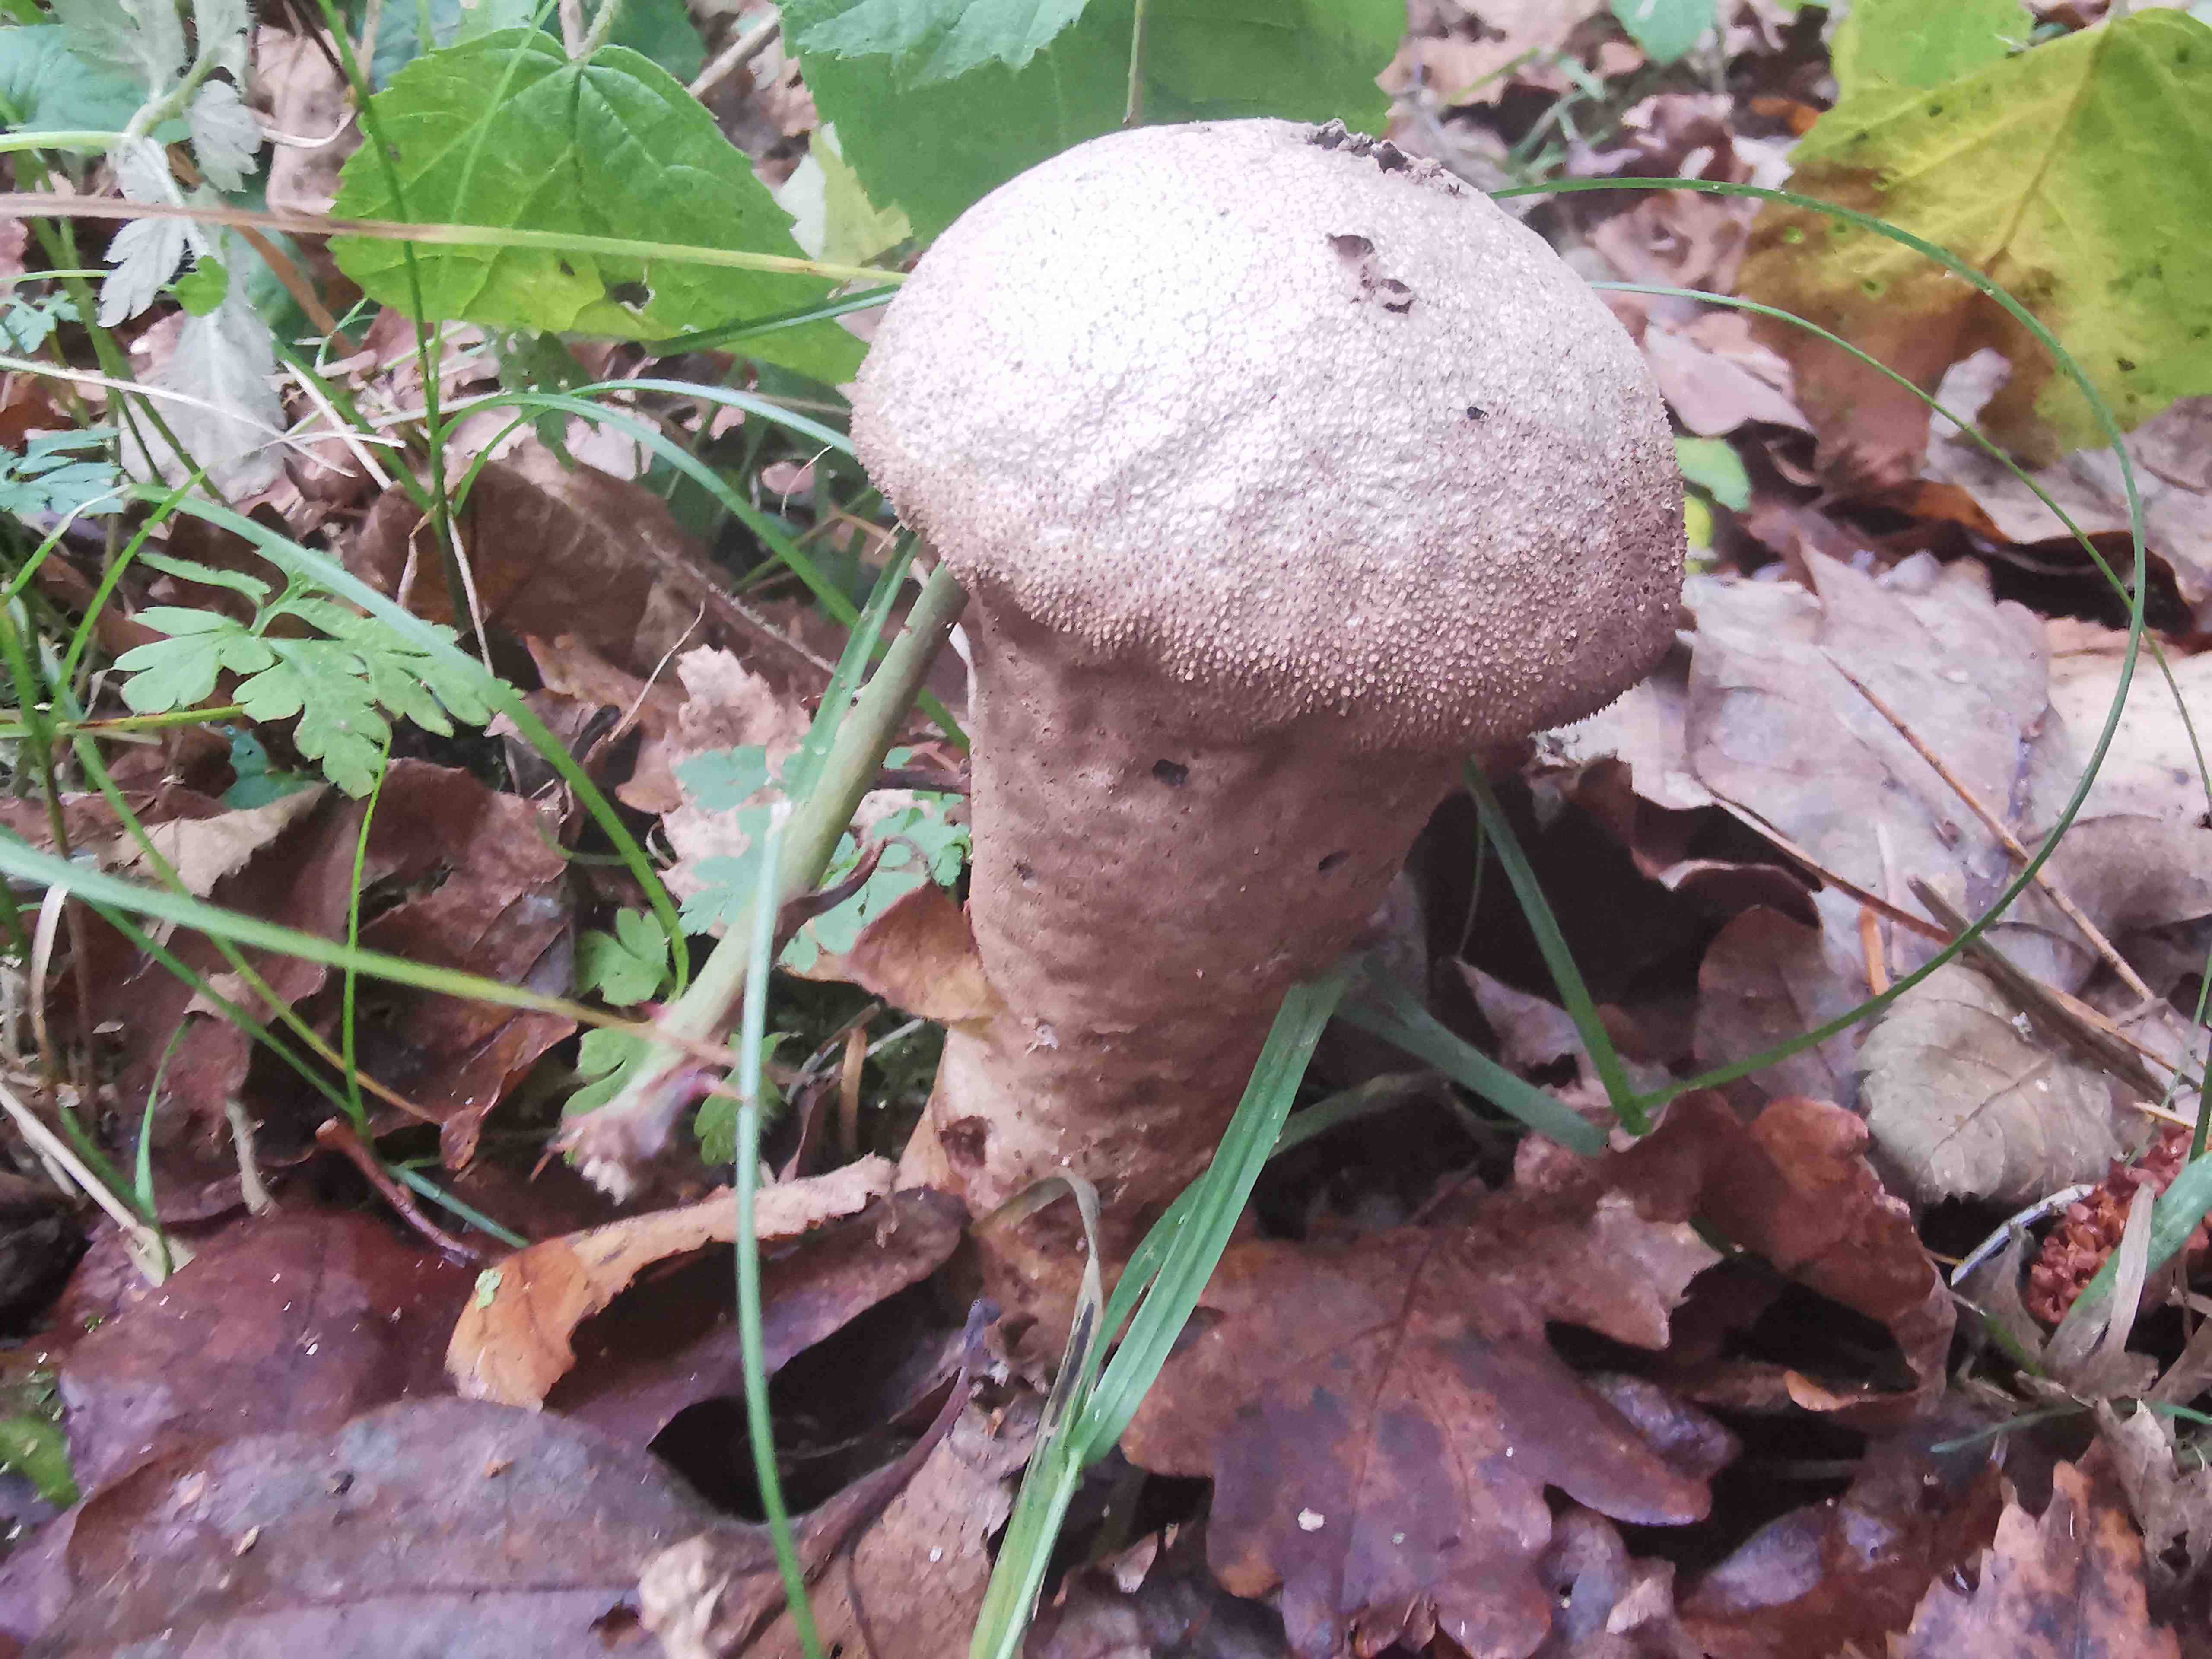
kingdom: Fungi
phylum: Basidiomycota
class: Agaricomycetes
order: Agaricales
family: Lycoperdaceae
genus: Lycoperdon
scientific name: Lycoperdon perlatum
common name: krystal-støvbold
